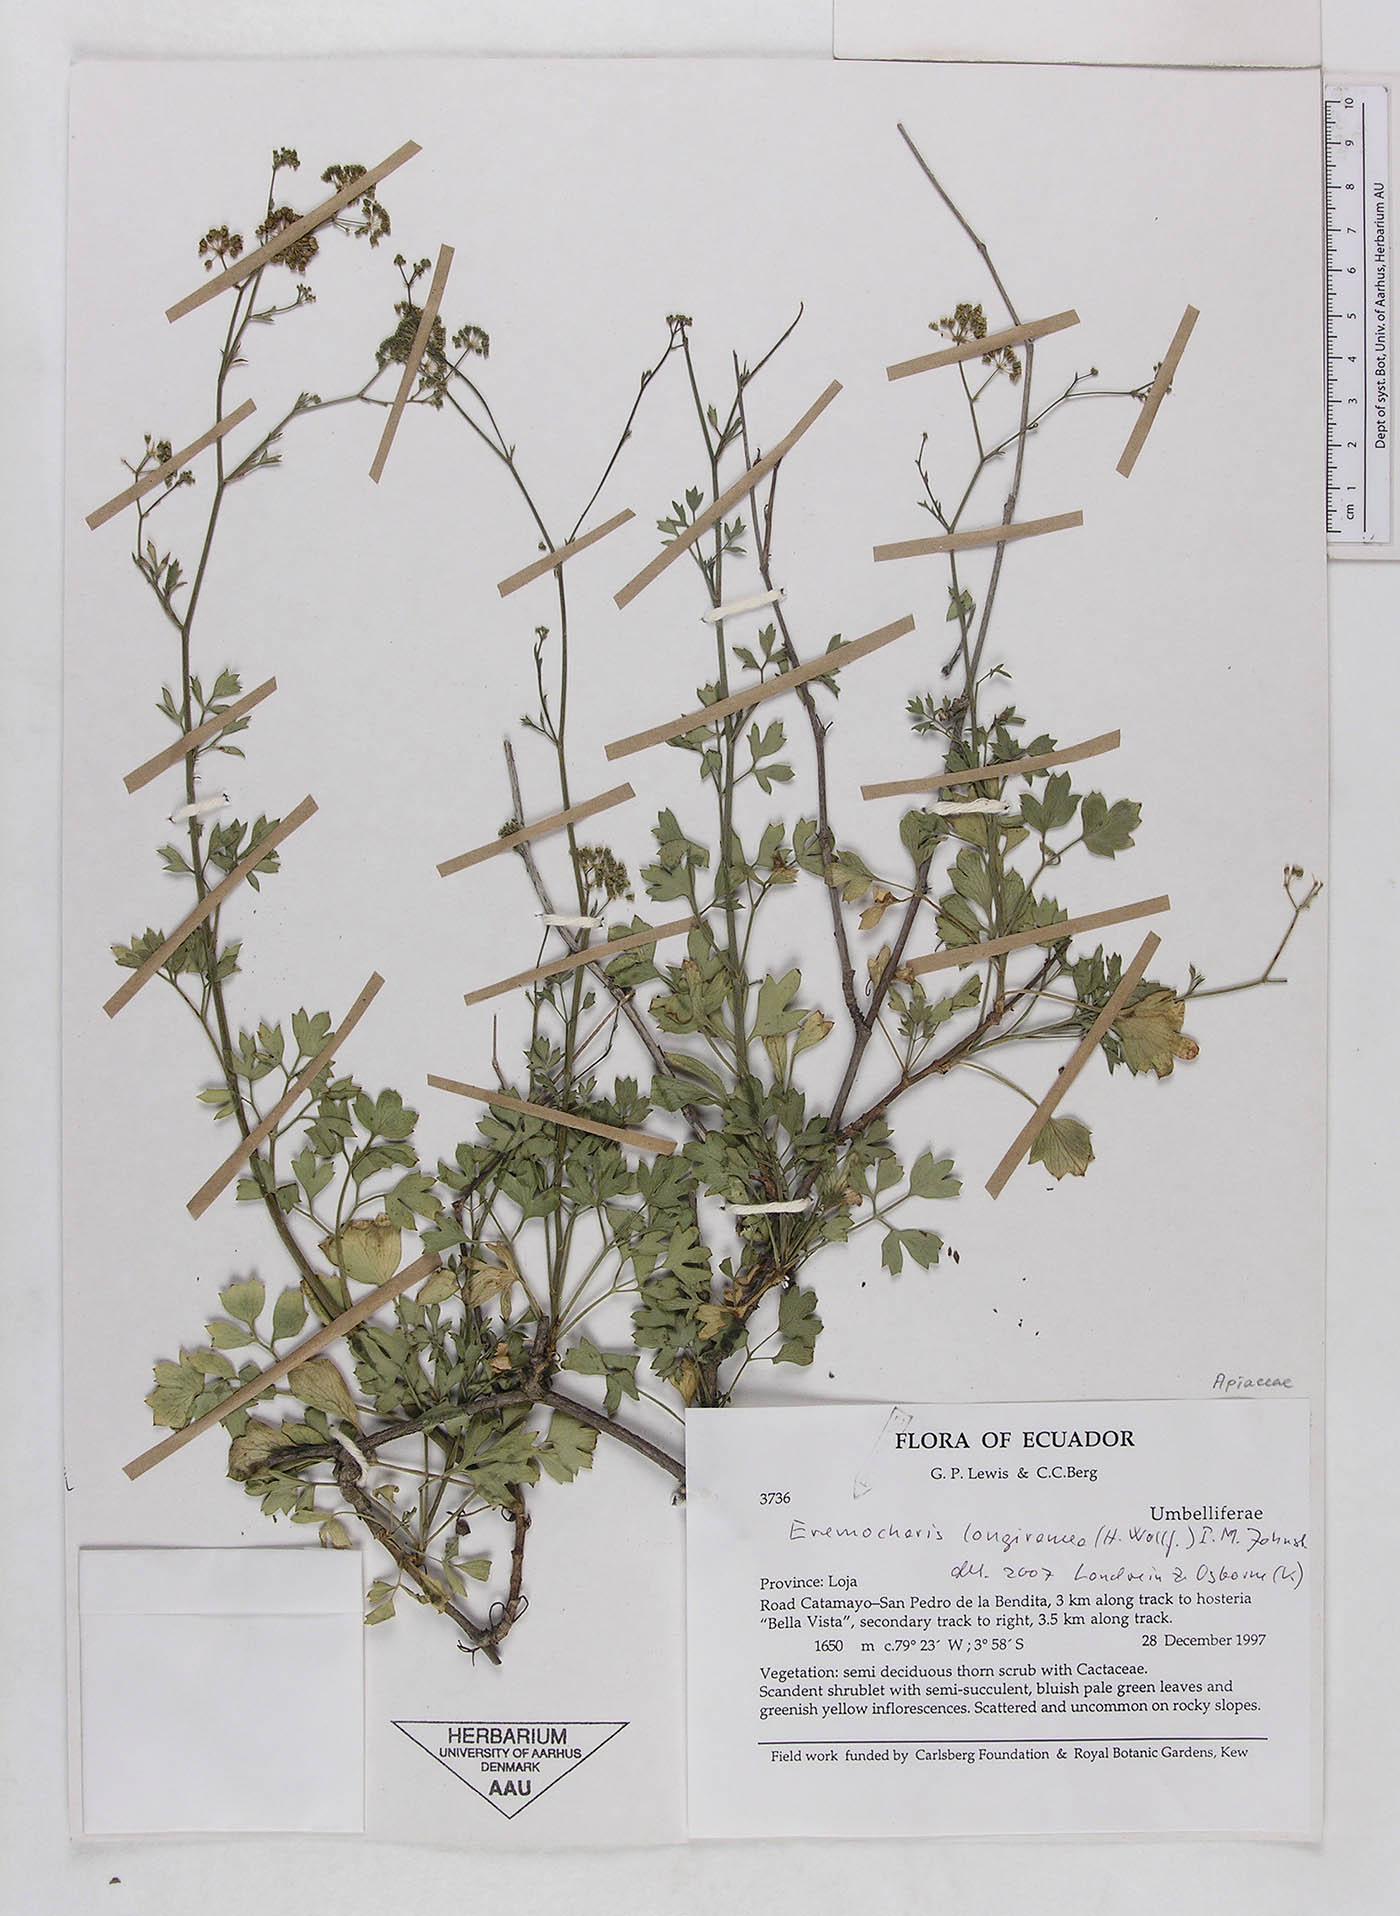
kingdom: Plantae
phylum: Tracheophyta
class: Magnoliopsida
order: Apiales
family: Apiaceae
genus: Eremocharis
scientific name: Eremocharis longiramea
